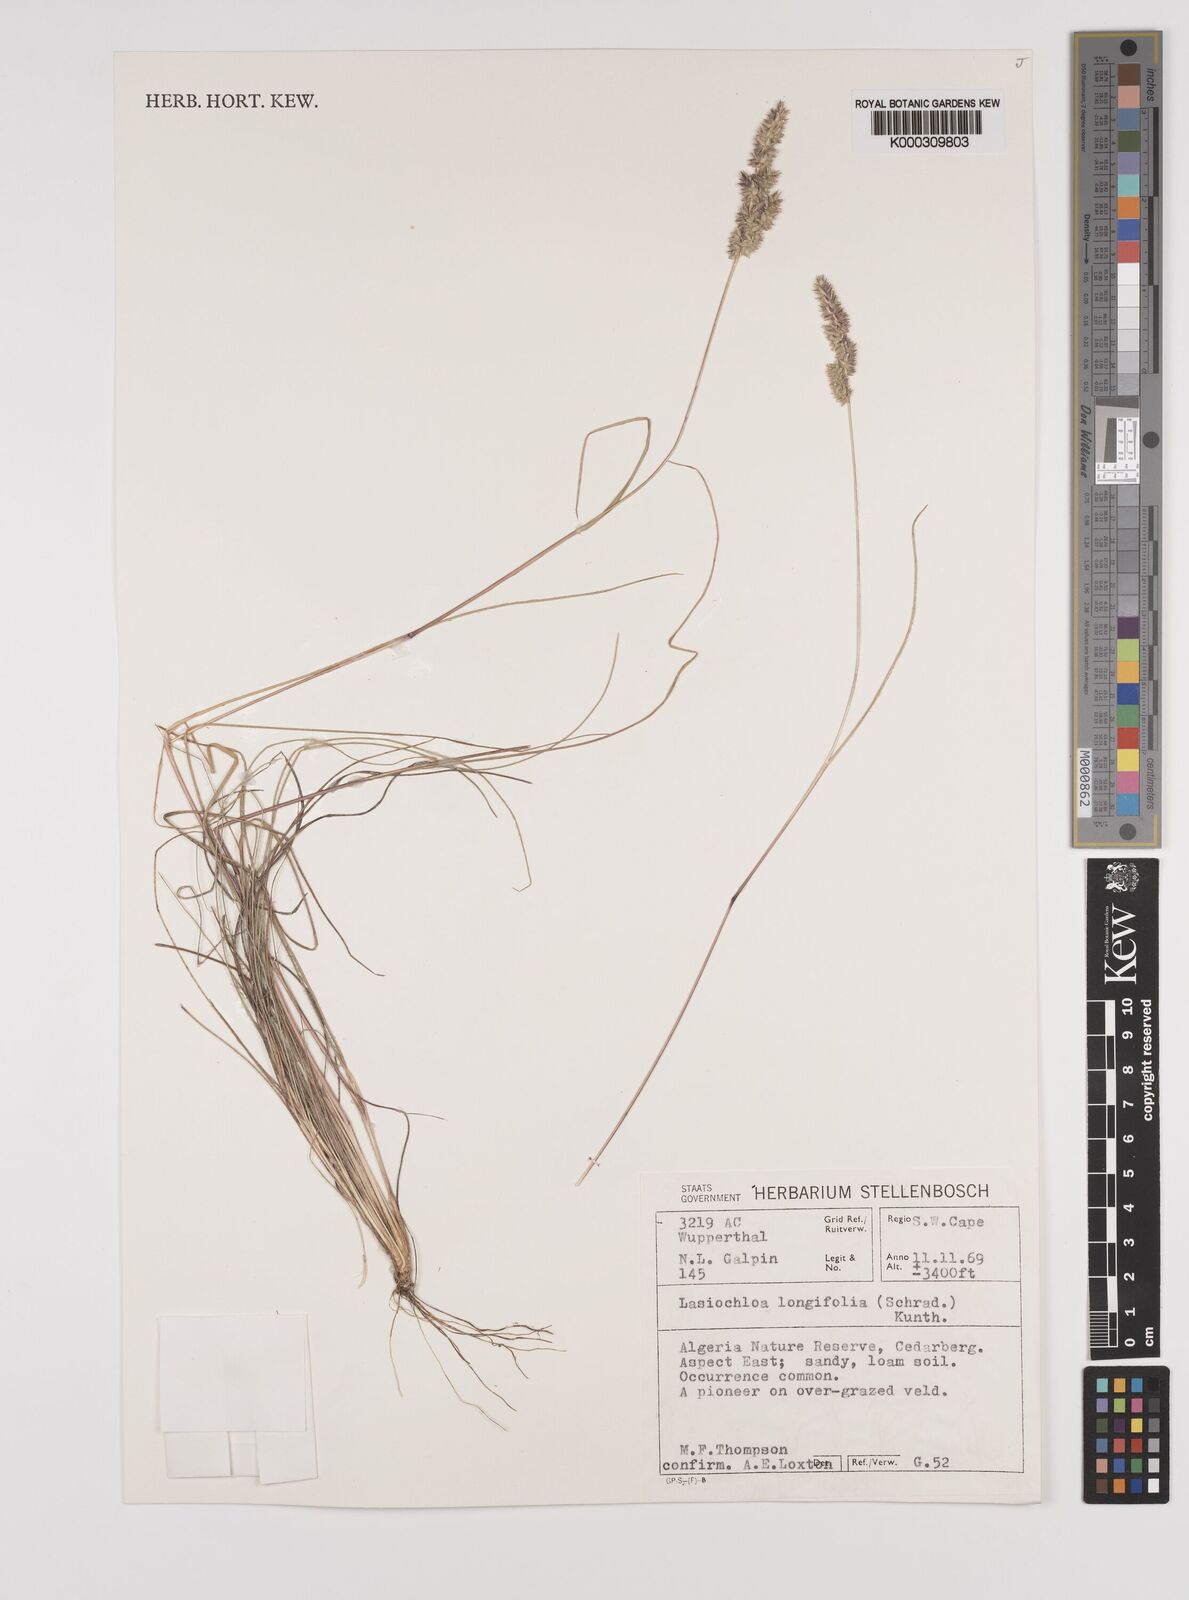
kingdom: Plantae
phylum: Tracheophyta
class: Liliopsida
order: Poales
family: Poaceae
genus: Tribolium
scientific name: Tribolium hispidum
